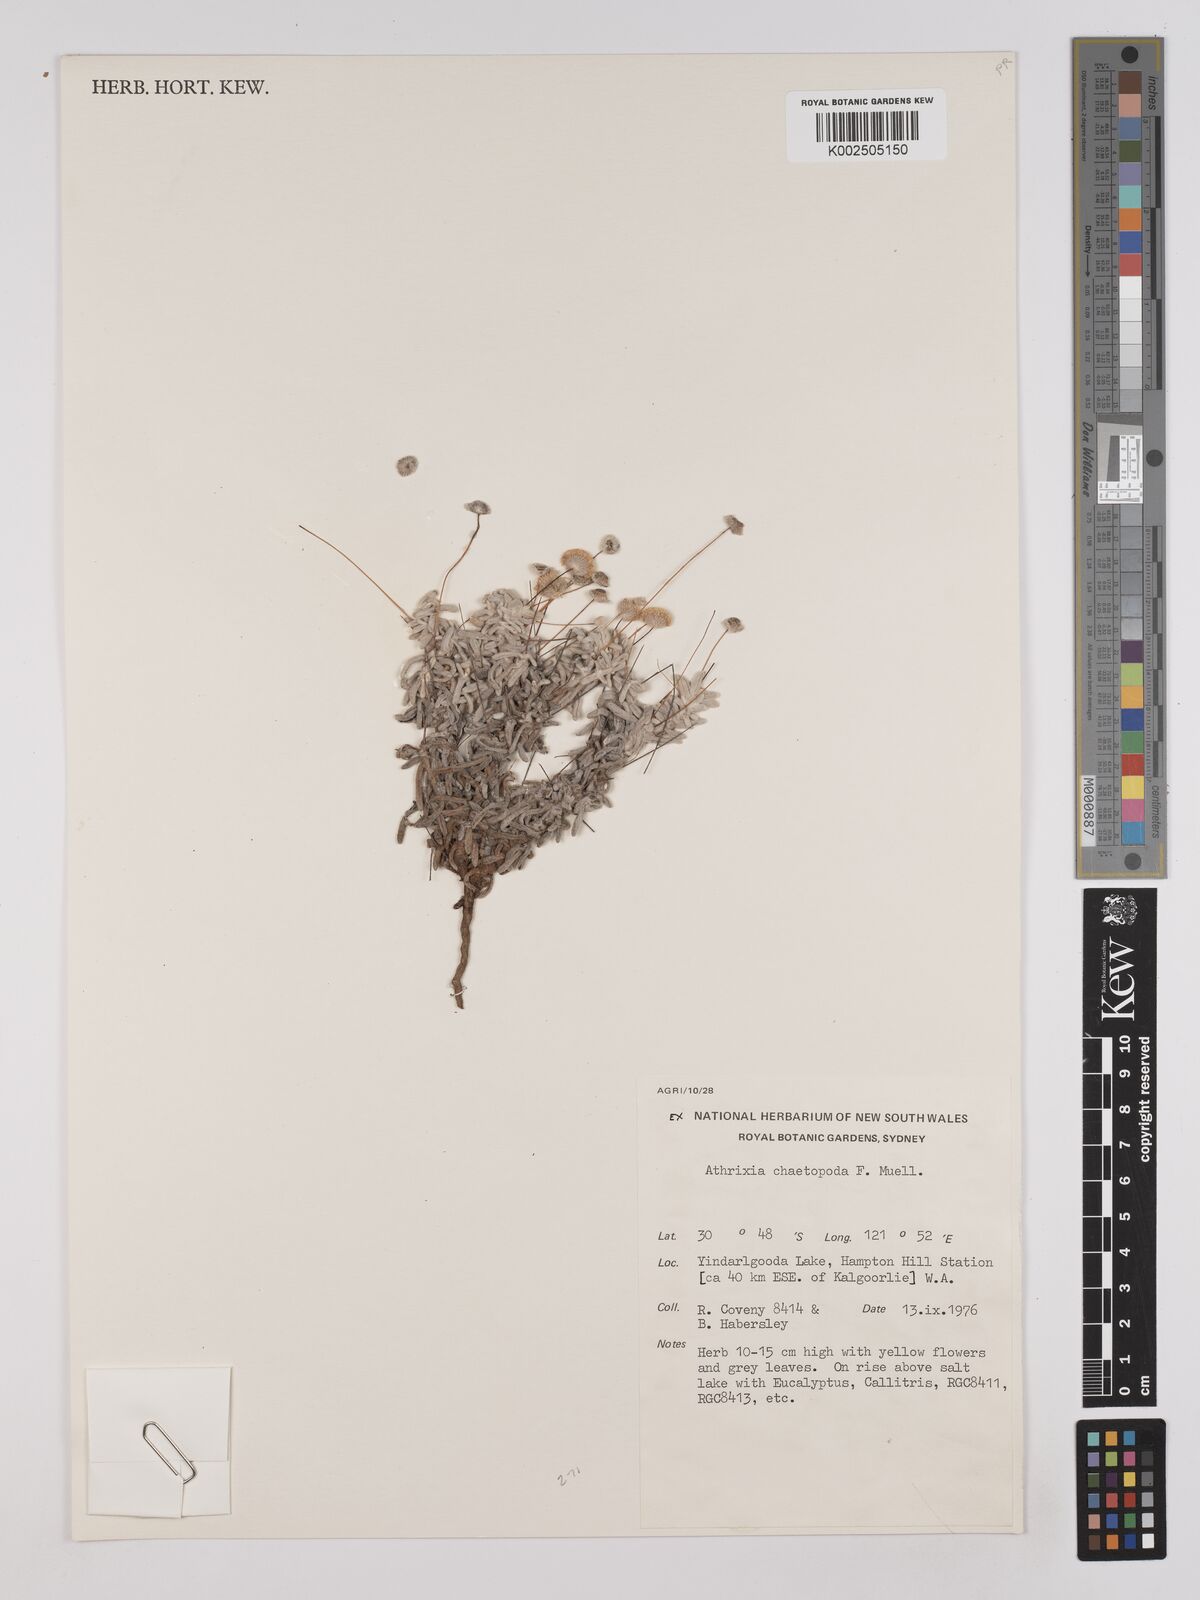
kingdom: Plantae
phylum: Tracheophyta
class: Magnoliopsida
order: Asterales
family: Asteraceae
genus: Asteridea
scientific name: Asteridea chaetopoda
